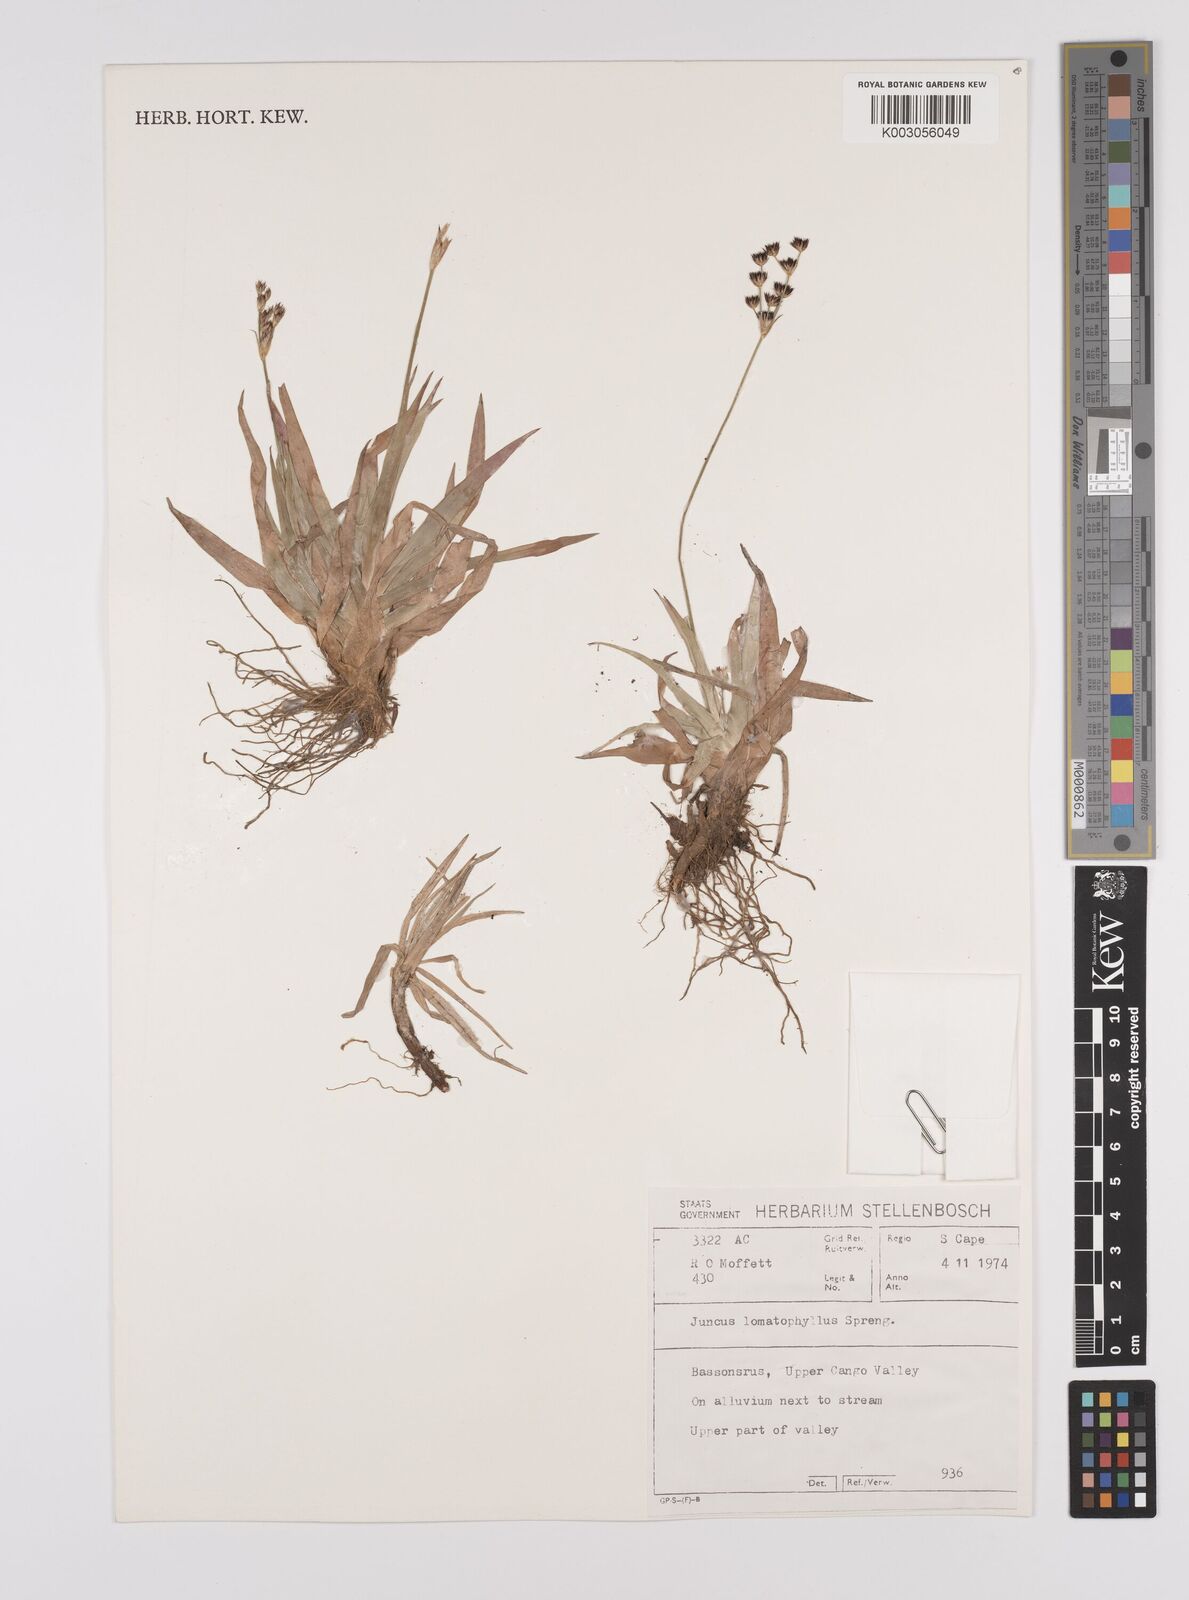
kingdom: Plantae
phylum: Tracheophyta
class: Liliopsida
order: Poales
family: Juncaceae
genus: Juncus
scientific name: Juncus lomatophyllus
